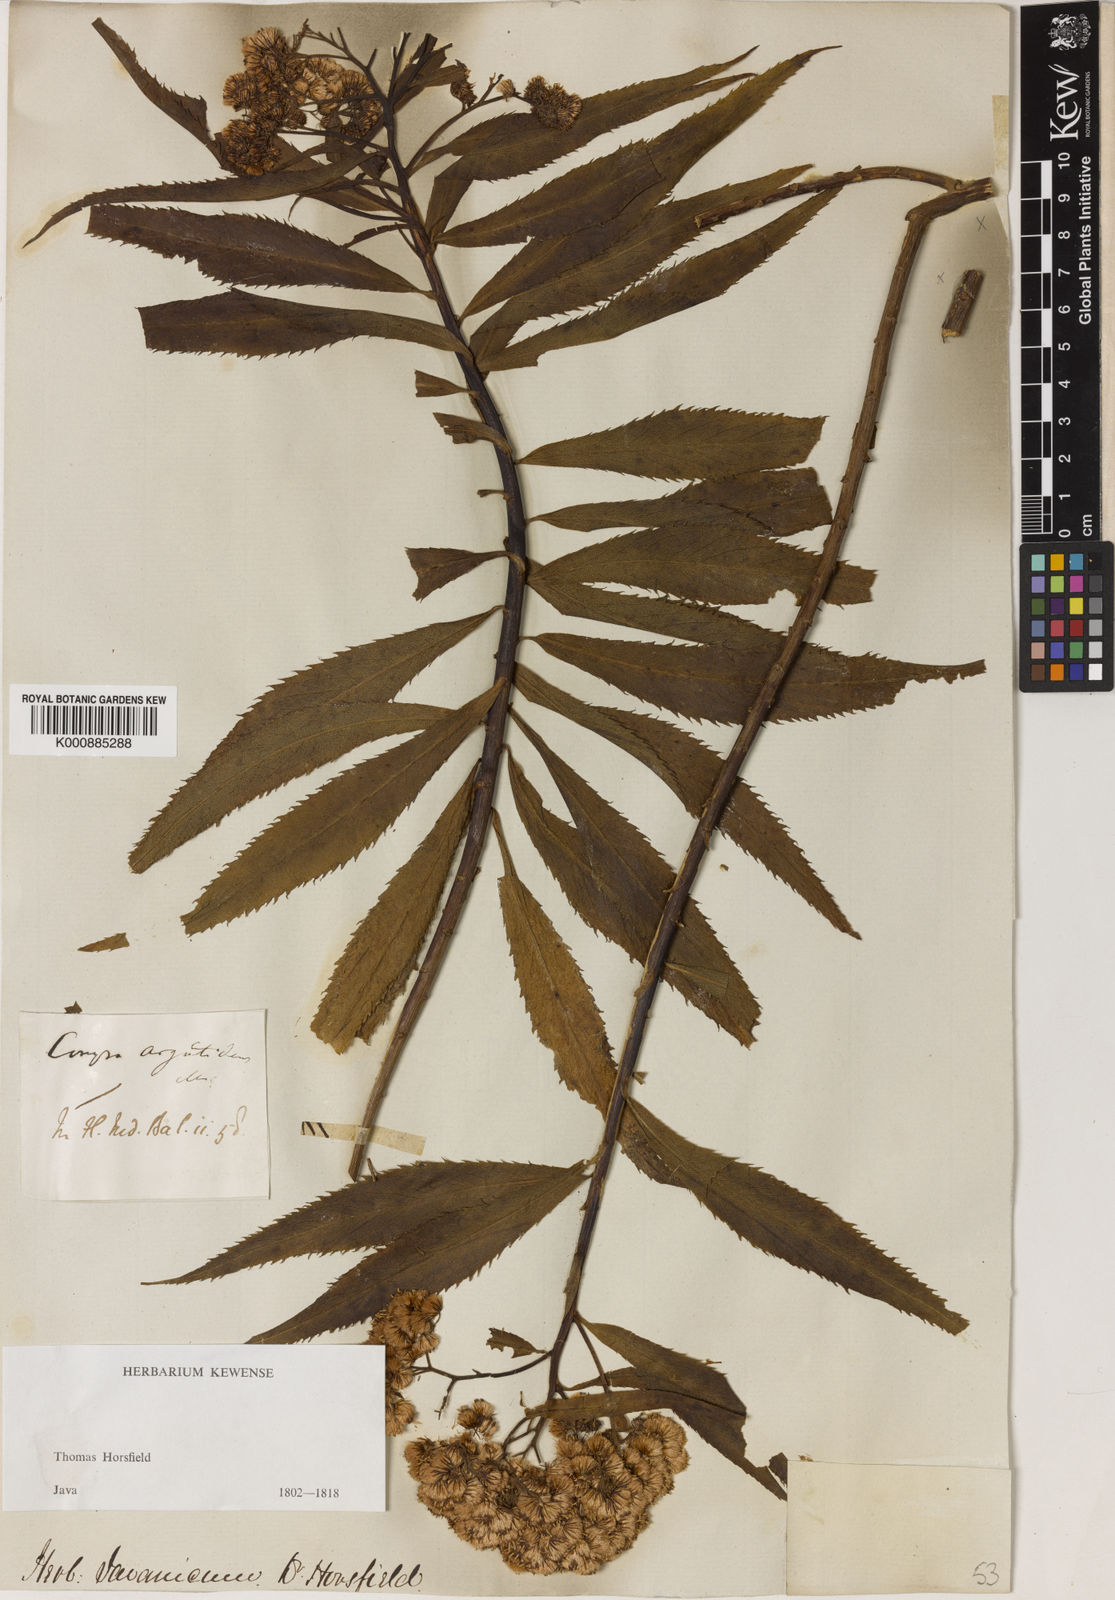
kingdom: Plantae
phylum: Tracheophyta
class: Magnoliopsida
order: Asterales
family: Asteraceae
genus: Conyza
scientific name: Conyza
